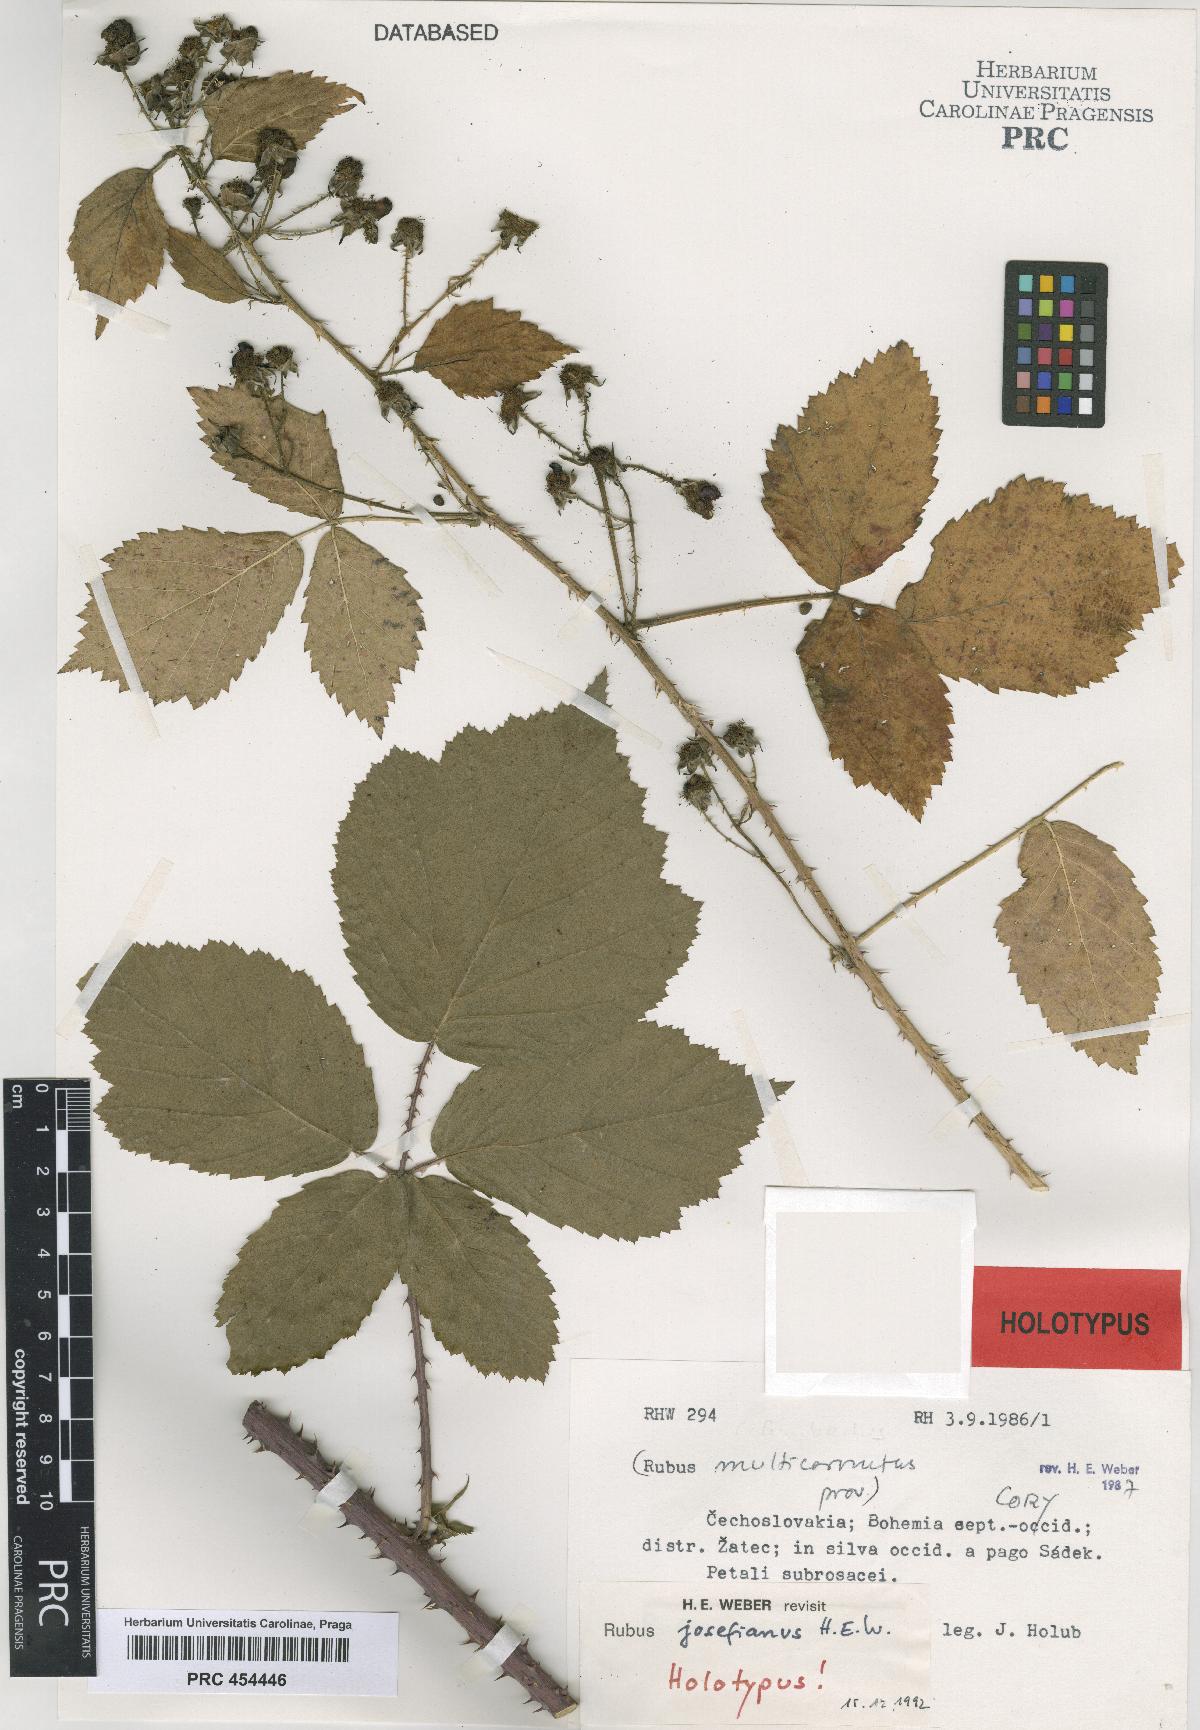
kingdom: Plantae
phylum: Tracheophyta
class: Magnoliopsida
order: Rosales
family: Rosaceae
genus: Rubus
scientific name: Rubus josefianus
